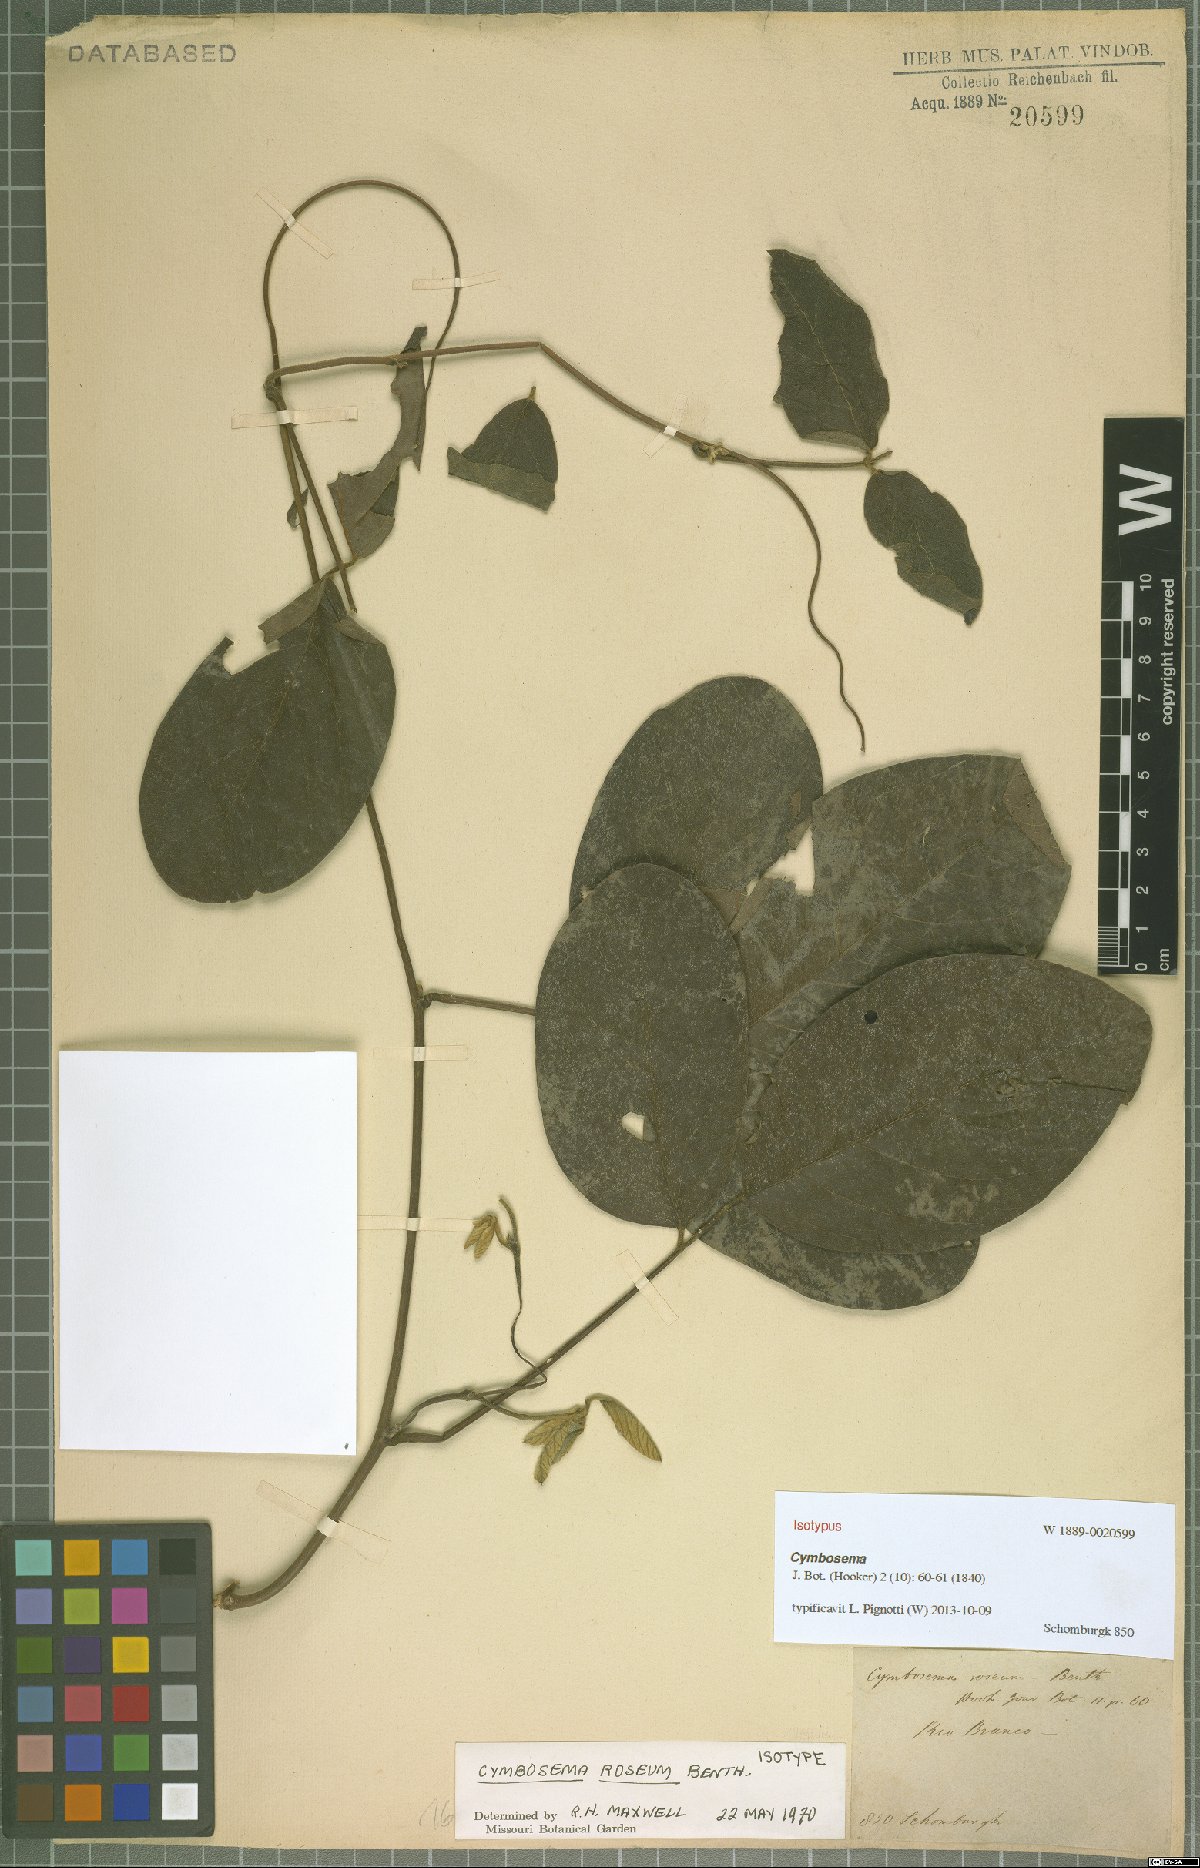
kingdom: Plantae
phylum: Tracheophyta
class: Magnoliopsida
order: Fabales
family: Fabaceae
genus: Cymbosema
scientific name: Cymbosema roseum
